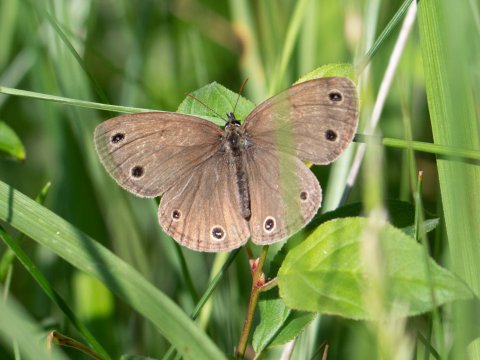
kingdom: Animalia
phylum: Arthropoda
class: Insecta
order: Lepidoptera
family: Nymphalidae
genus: Euptychia
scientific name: Euptychia cymela
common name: Little Wood Satyr
